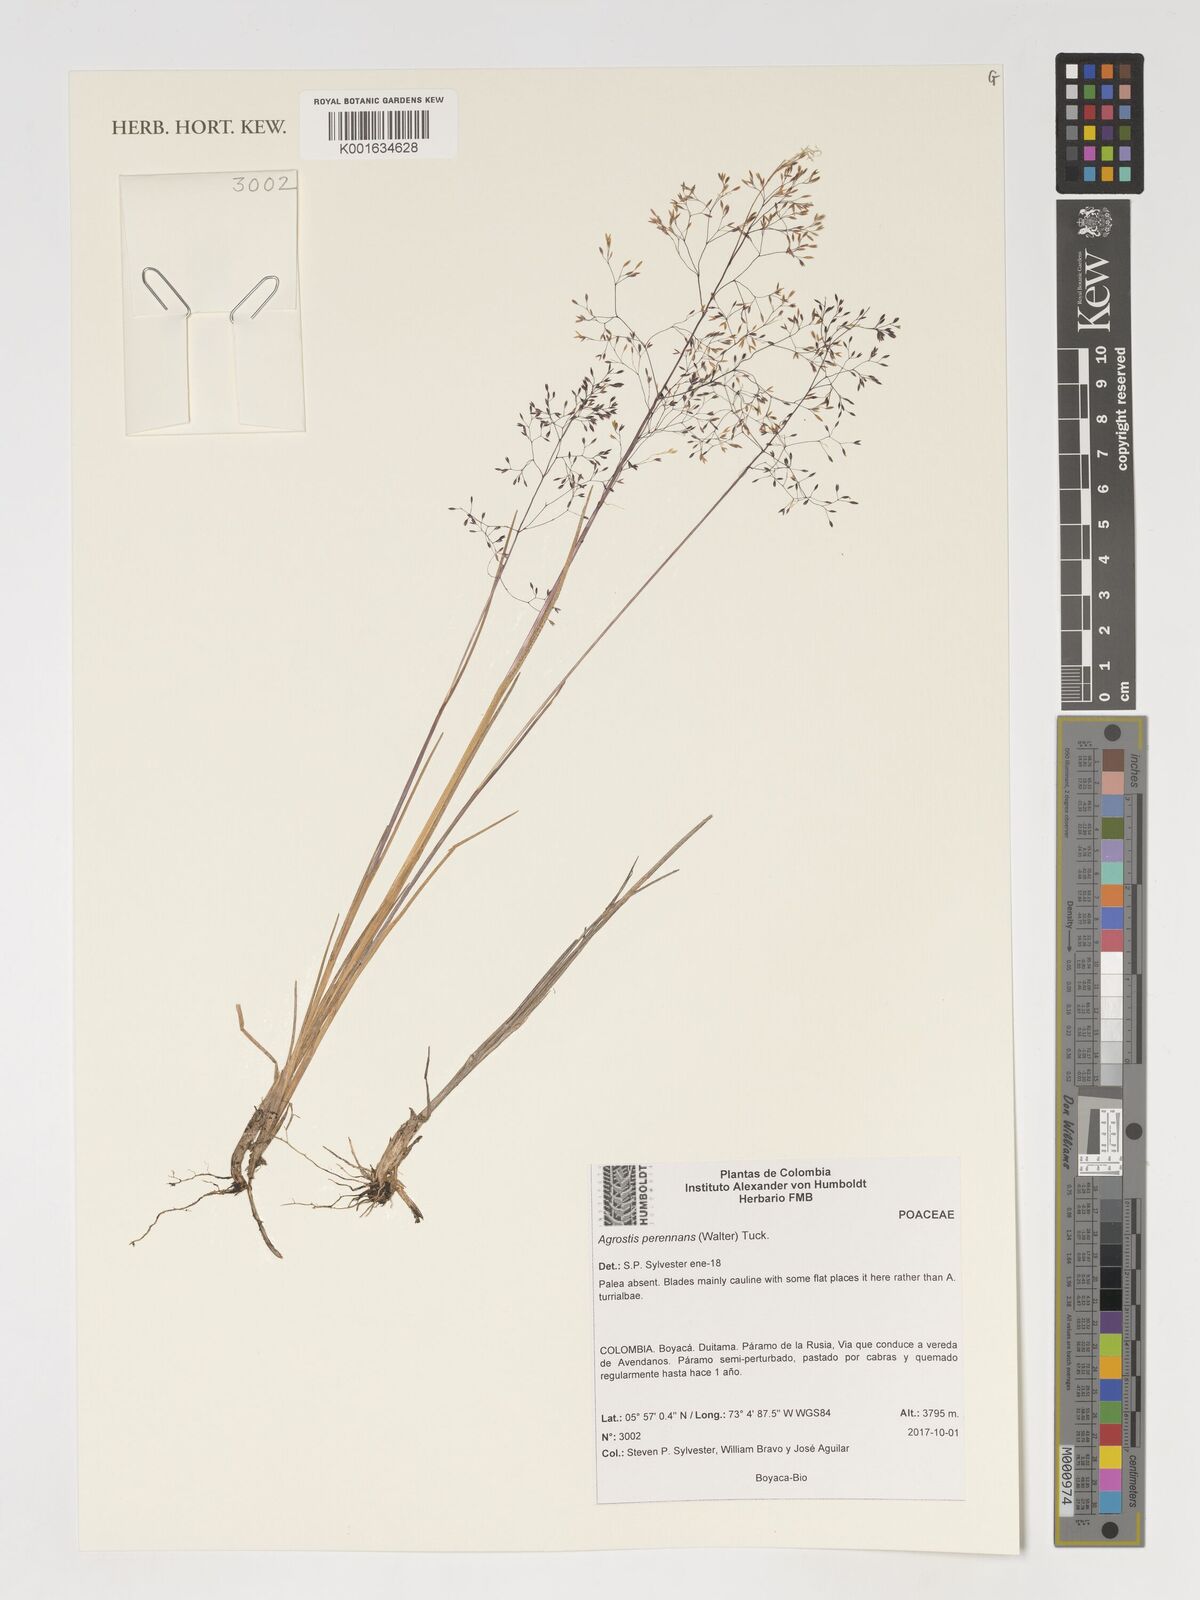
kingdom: Plantae
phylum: Tracheophyta
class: Liliopsida
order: Poales
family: Poaceae
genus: Agrostis
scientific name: Agrostis perennans
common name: Autumn bent
